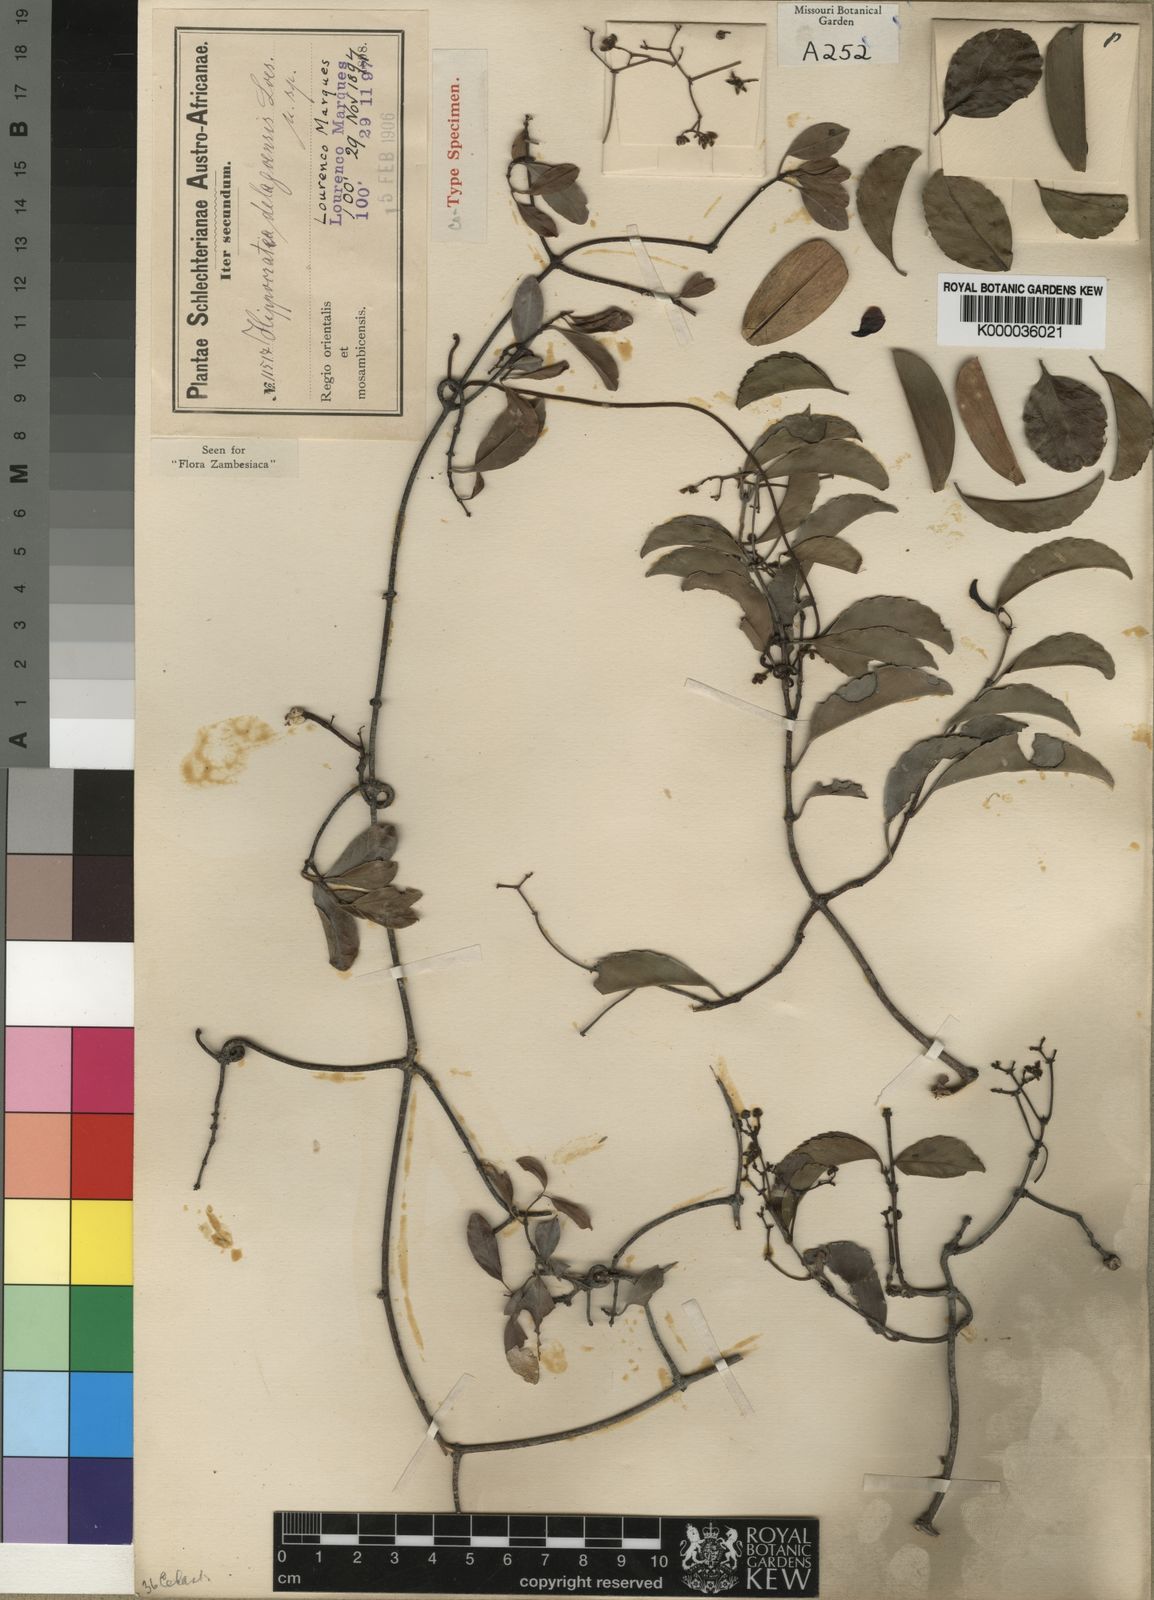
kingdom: Plantae
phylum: Tracheophyta
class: Magnoliopsida
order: Celastrales
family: Celastraceae
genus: Prionostemma
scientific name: Prionostemma
